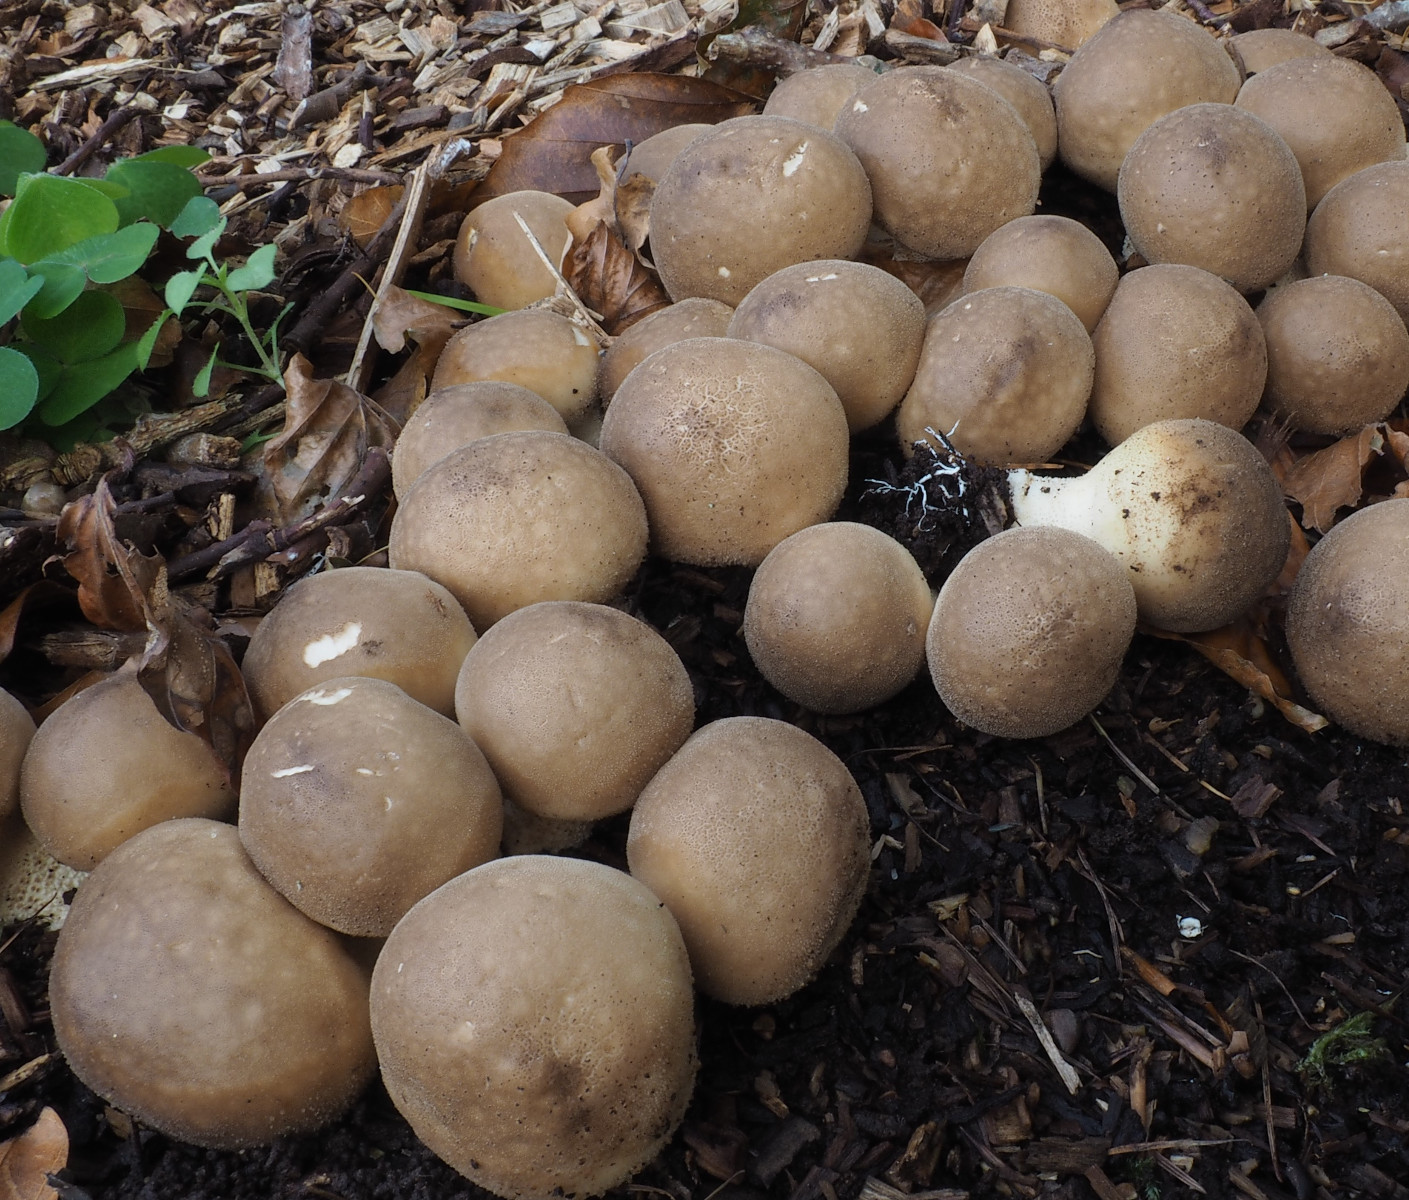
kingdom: Fungi
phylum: Basidiomycota
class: Agaricomycetes
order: Agaricales
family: Lycoperdaceae
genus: Apioperdon
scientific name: Apioperdon pyriforme
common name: pære-støvbold
